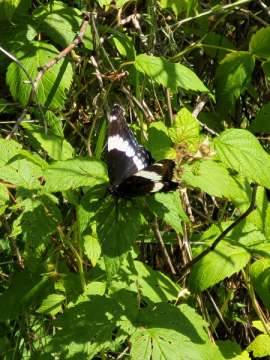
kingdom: Animalia
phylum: Arthropoda
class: Insecta
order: Lepidoptera
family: Nymphalidae
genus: Limenitis
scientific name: Limenitis arthemis
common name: Red-spotted Admiral
